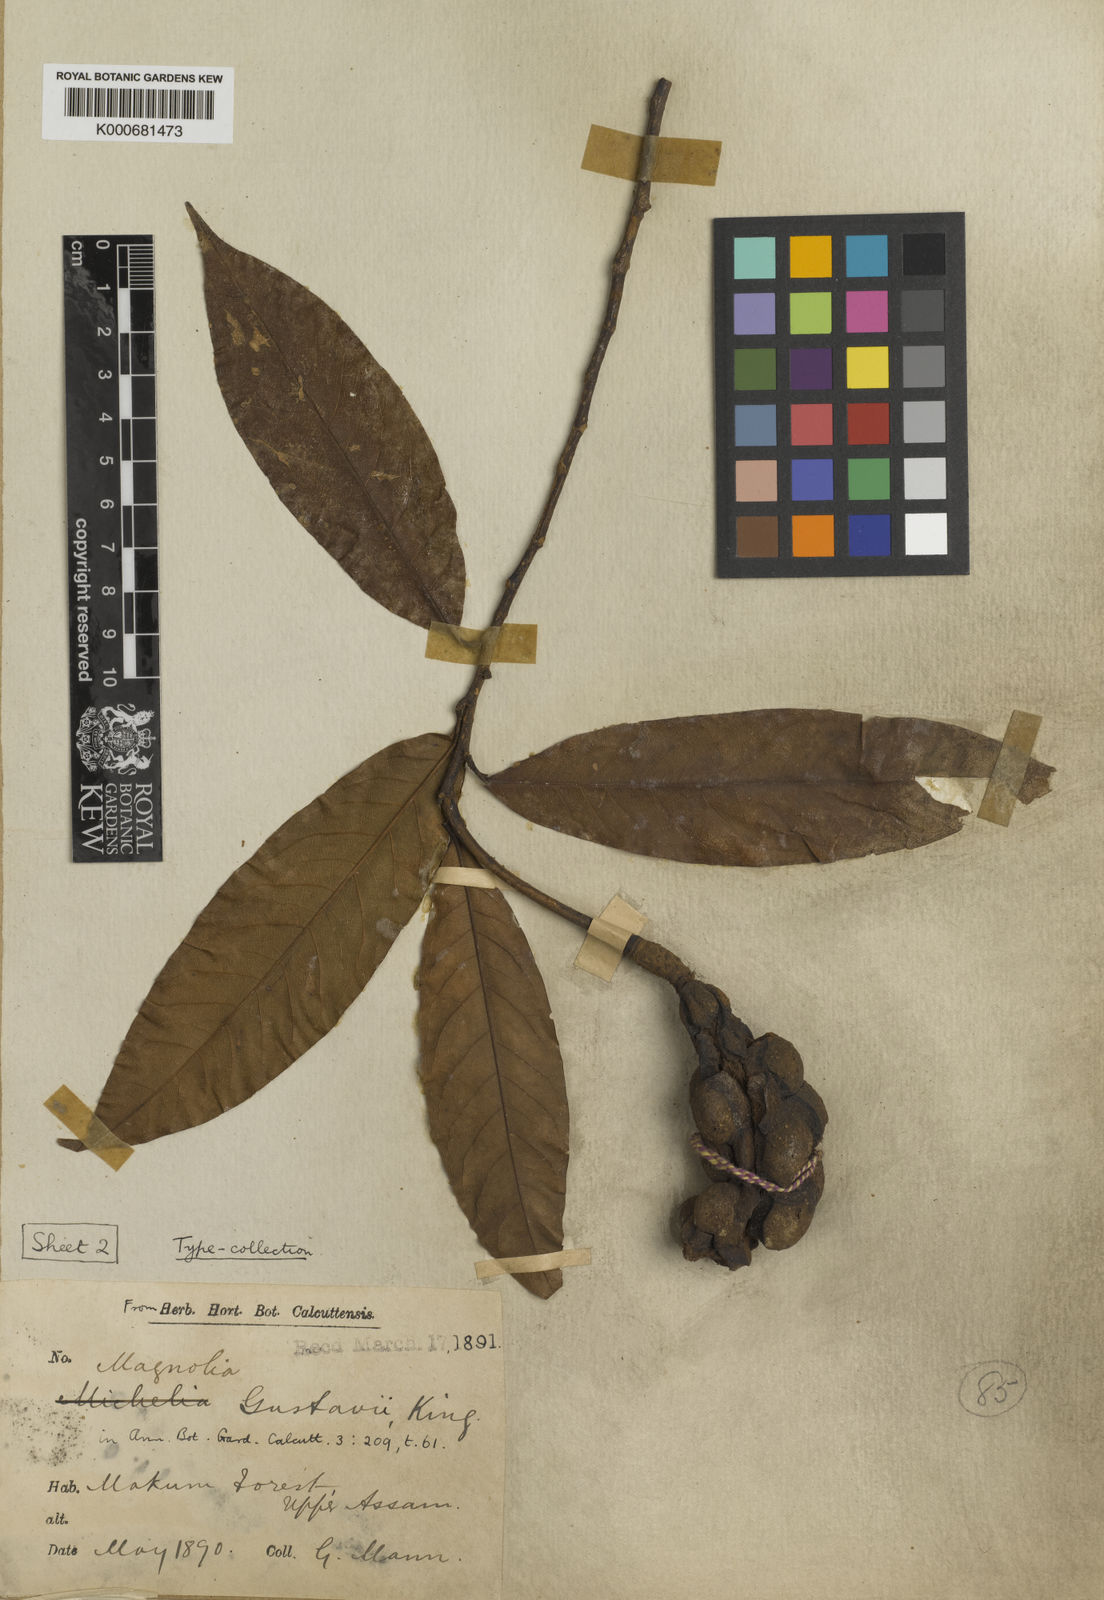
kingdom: Plantae
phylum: Tracheophyta
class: Magnoliopsida
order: Magnoliales
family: Magnoliaceae
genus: Magnolia
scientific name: Magnolia gustavi
